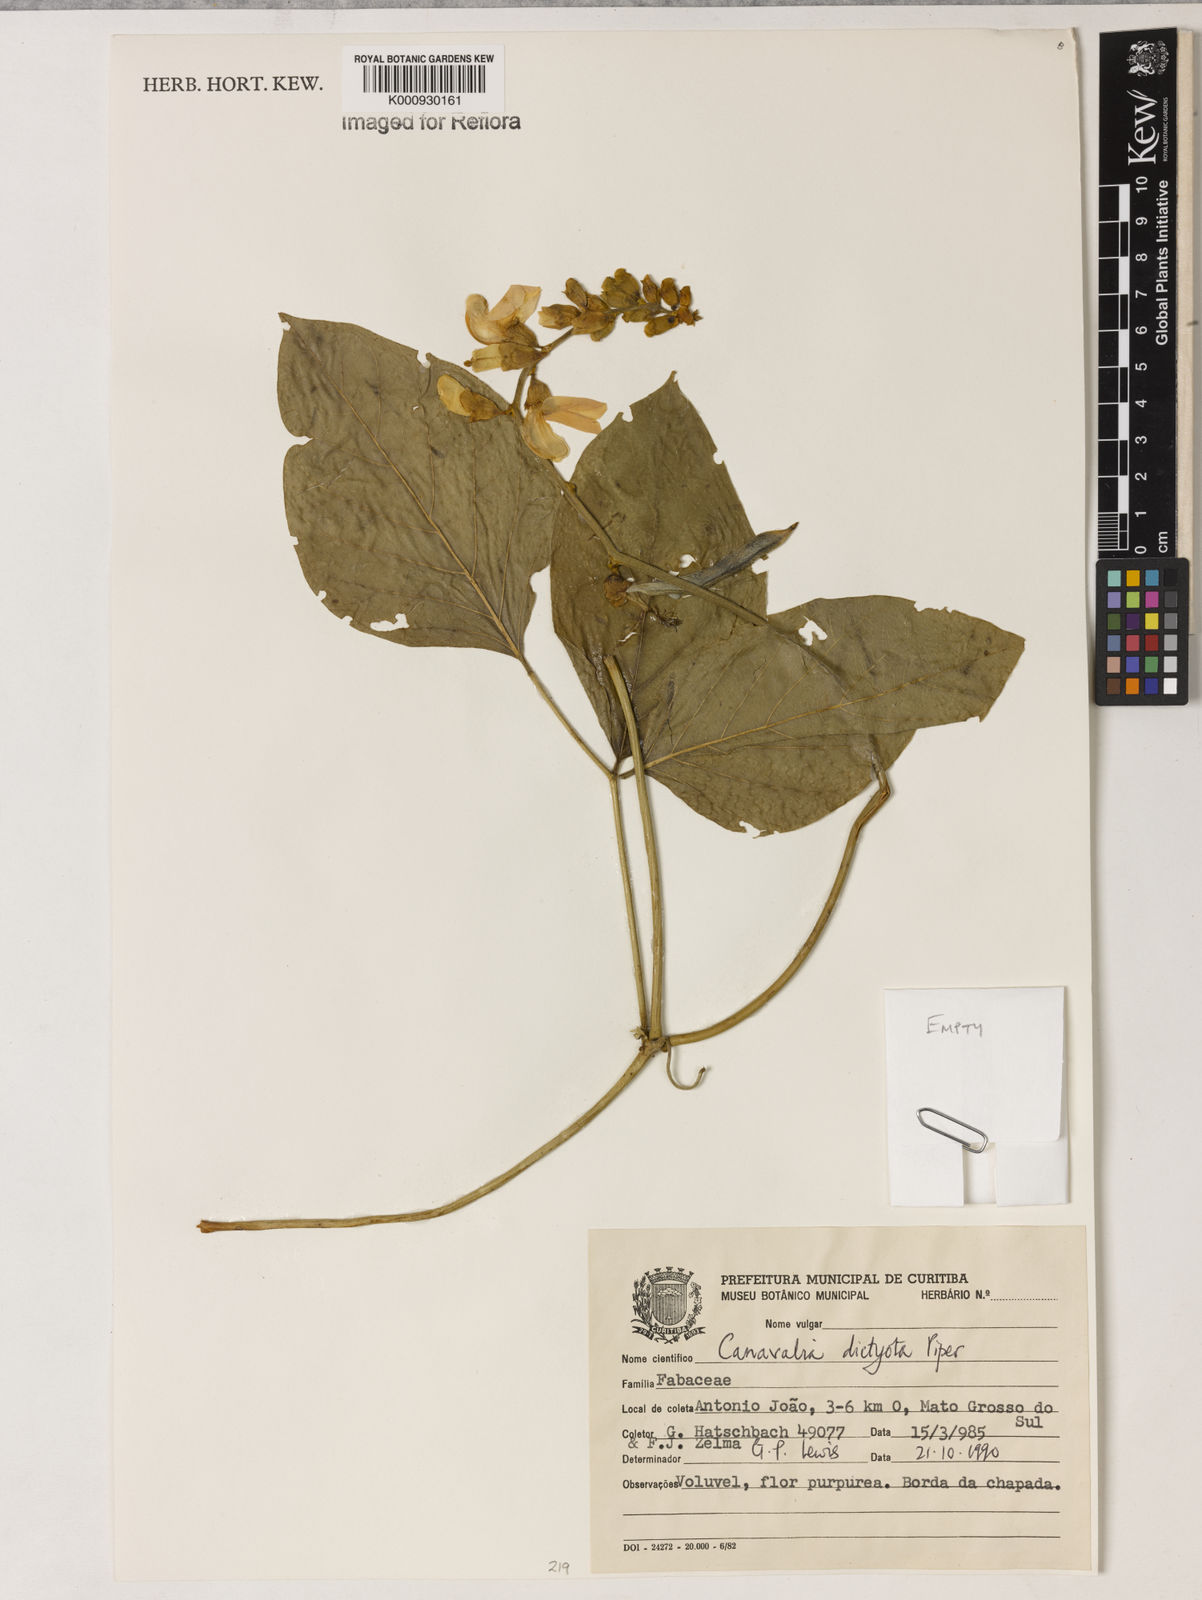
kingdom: Plantae
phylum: Tracheophyta
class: Magnoliopsida
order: Fabales
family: Fabaceae
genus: Canavalia
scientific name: Canavalia brasiliensis
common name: Barbicou-bean
